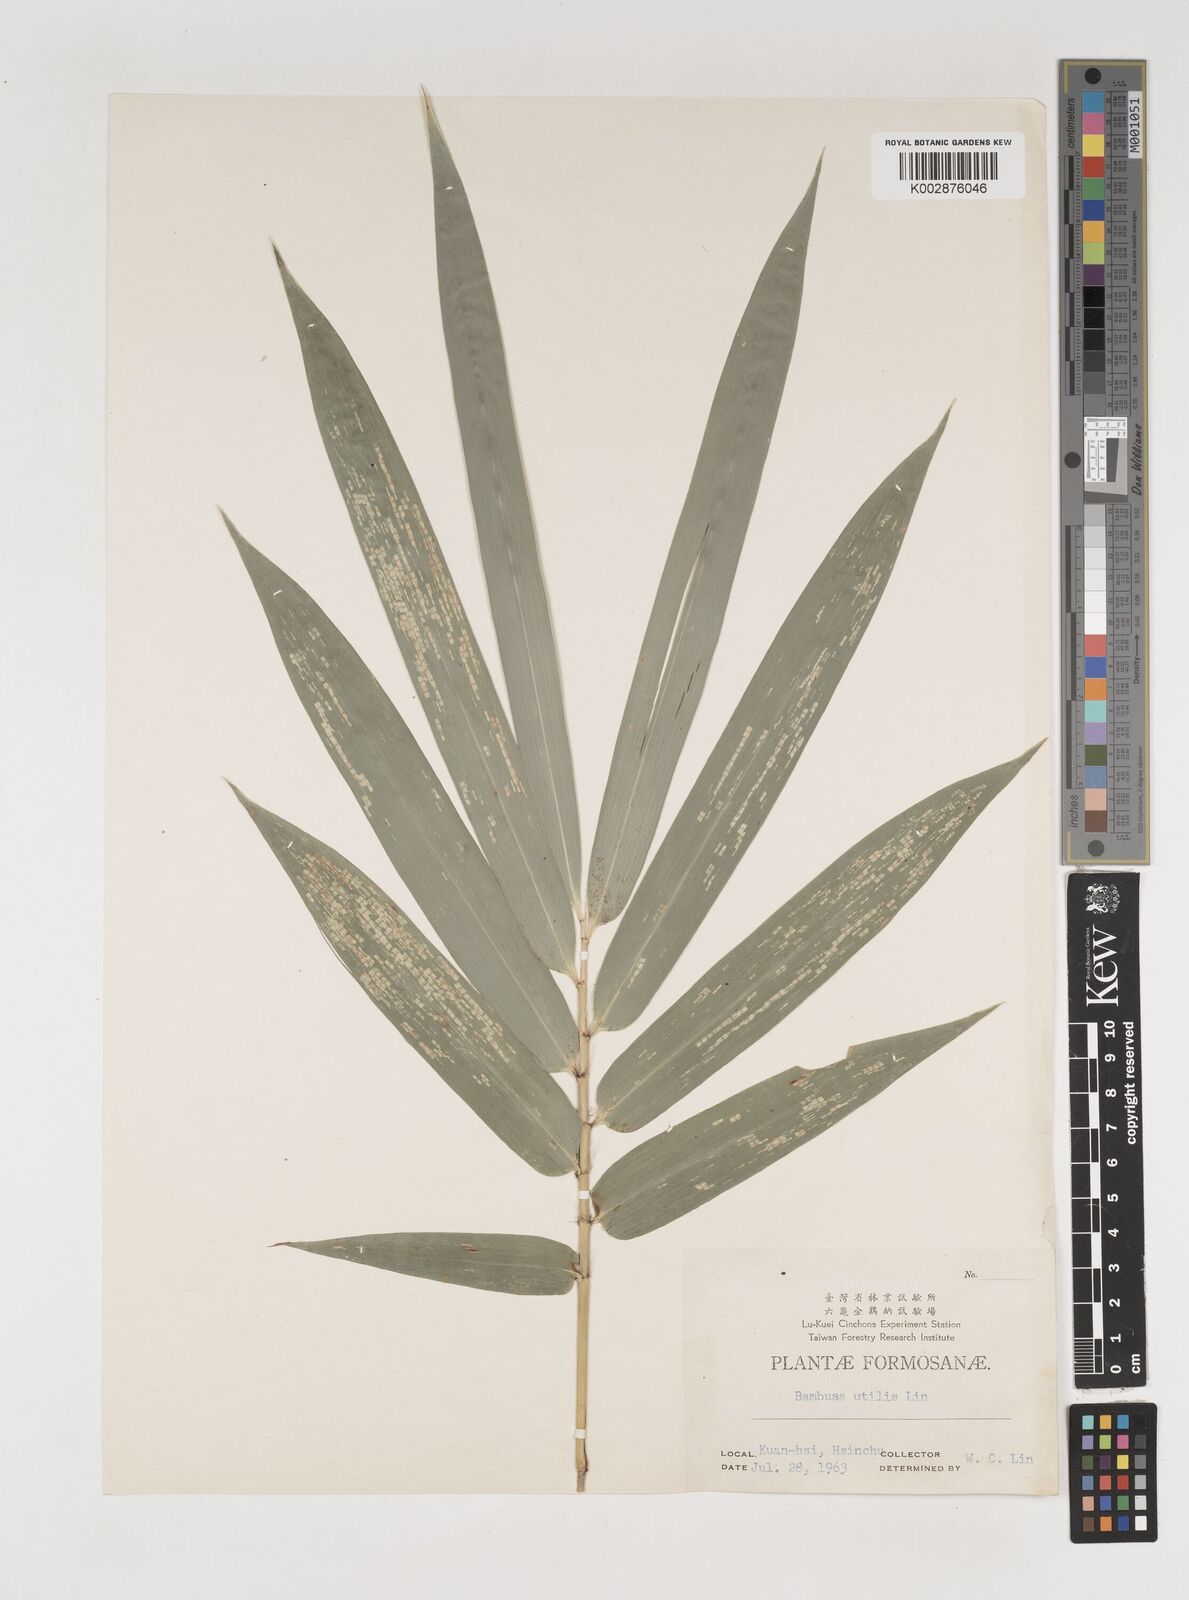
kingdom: Plantae
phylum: Tracheophyta
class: Liliopsida
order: Poales
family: Poaceae
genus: Bambusa
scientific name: Bambusa utilis
